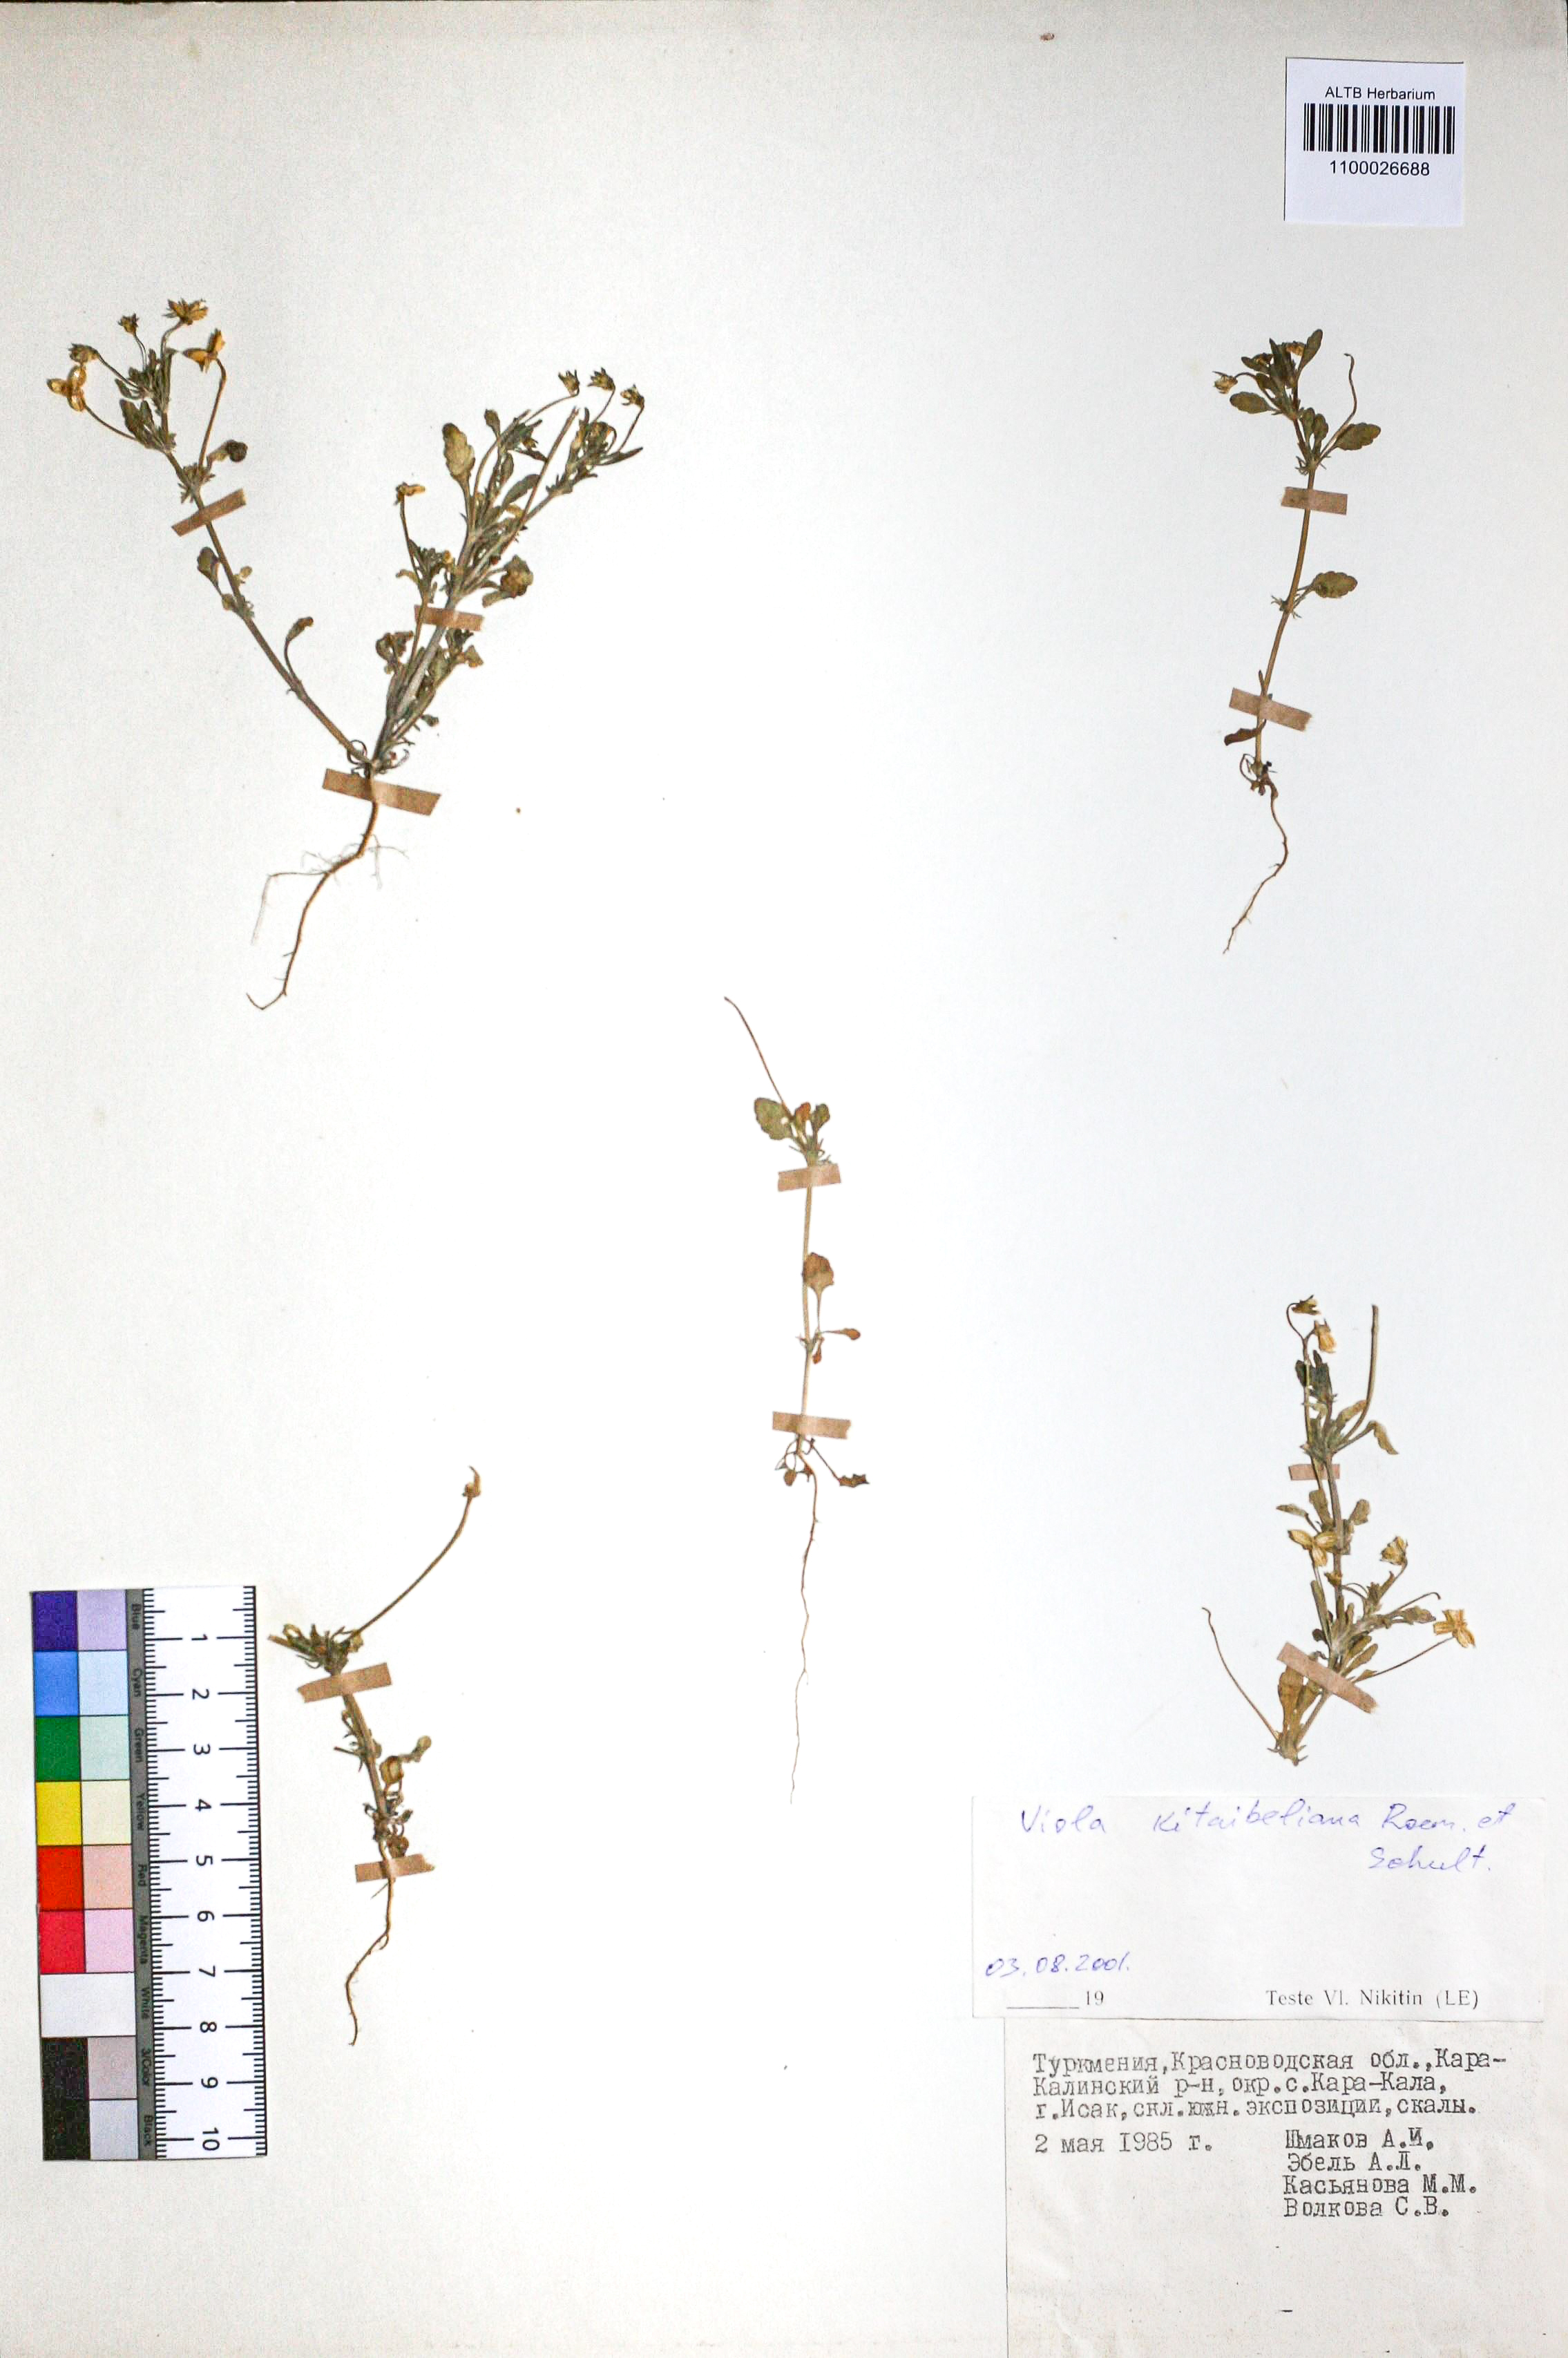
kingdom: Plantae
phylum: Tracheophyta
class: Magnoliopsida
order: Malpighiales
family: Violaceae
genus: Viola
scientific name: Viola kitaibeliana
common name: Dwarf pansy
